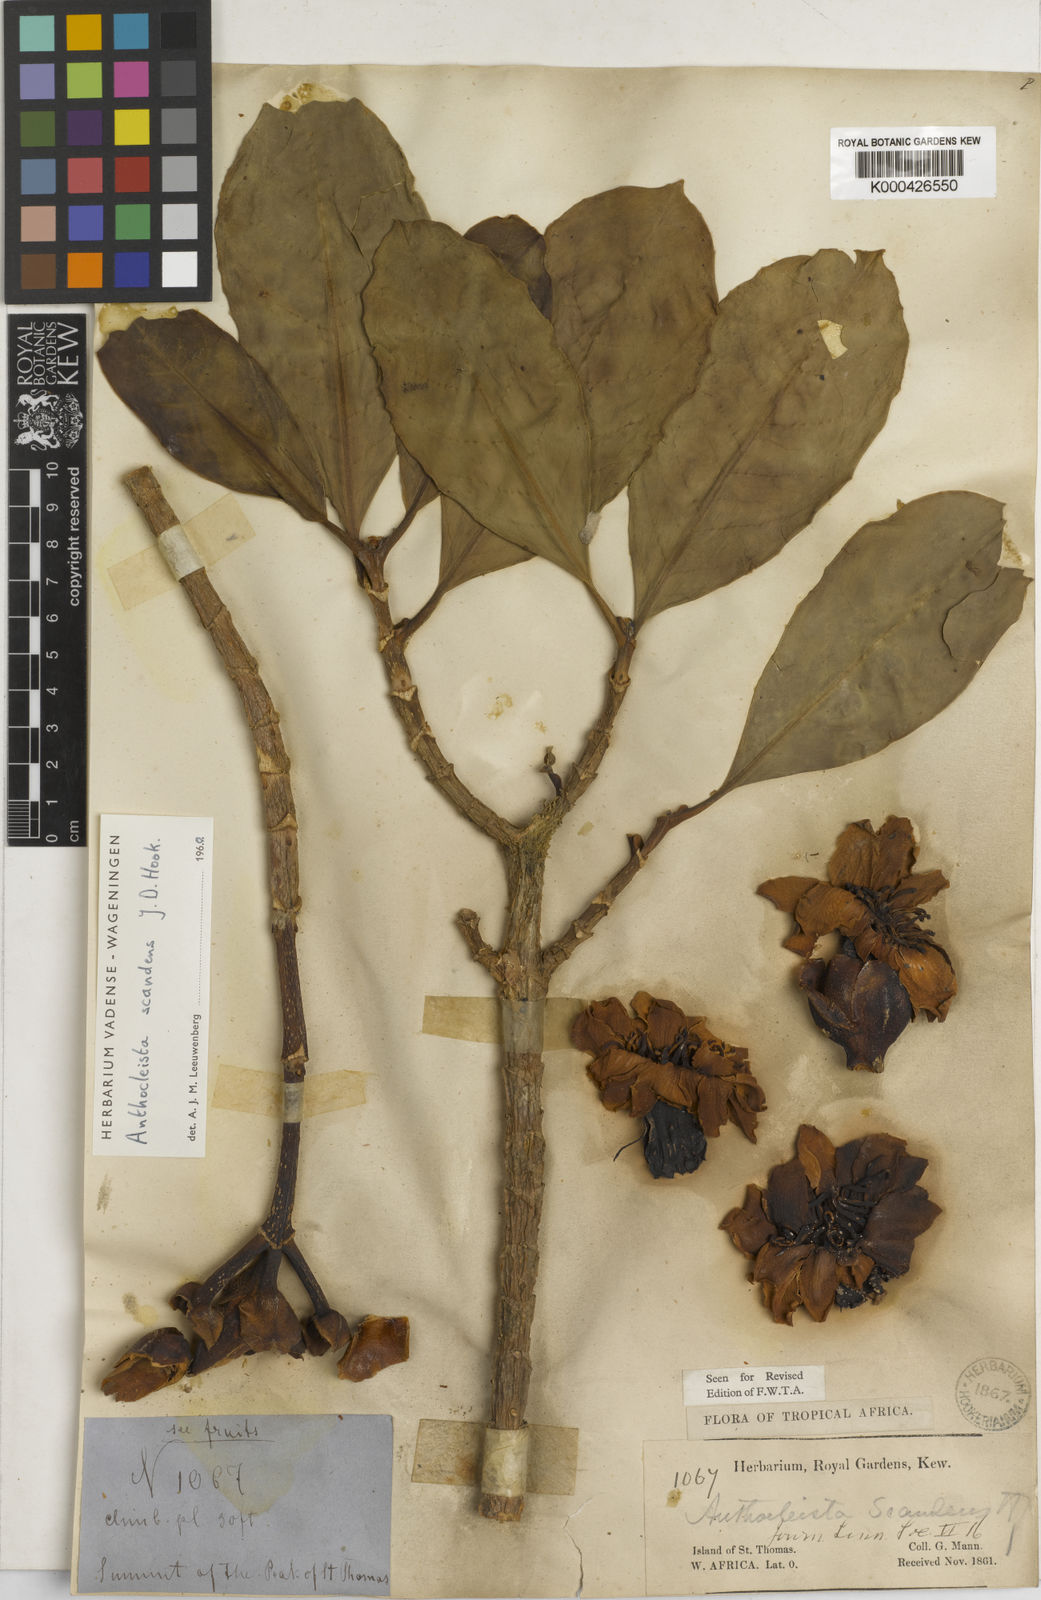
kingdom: Plantae
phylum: Tracheophyta
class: Magnoliopsida
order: Gentianales
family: Gentianaceae
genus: Anthocleista
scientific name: Anthocleista scandens
